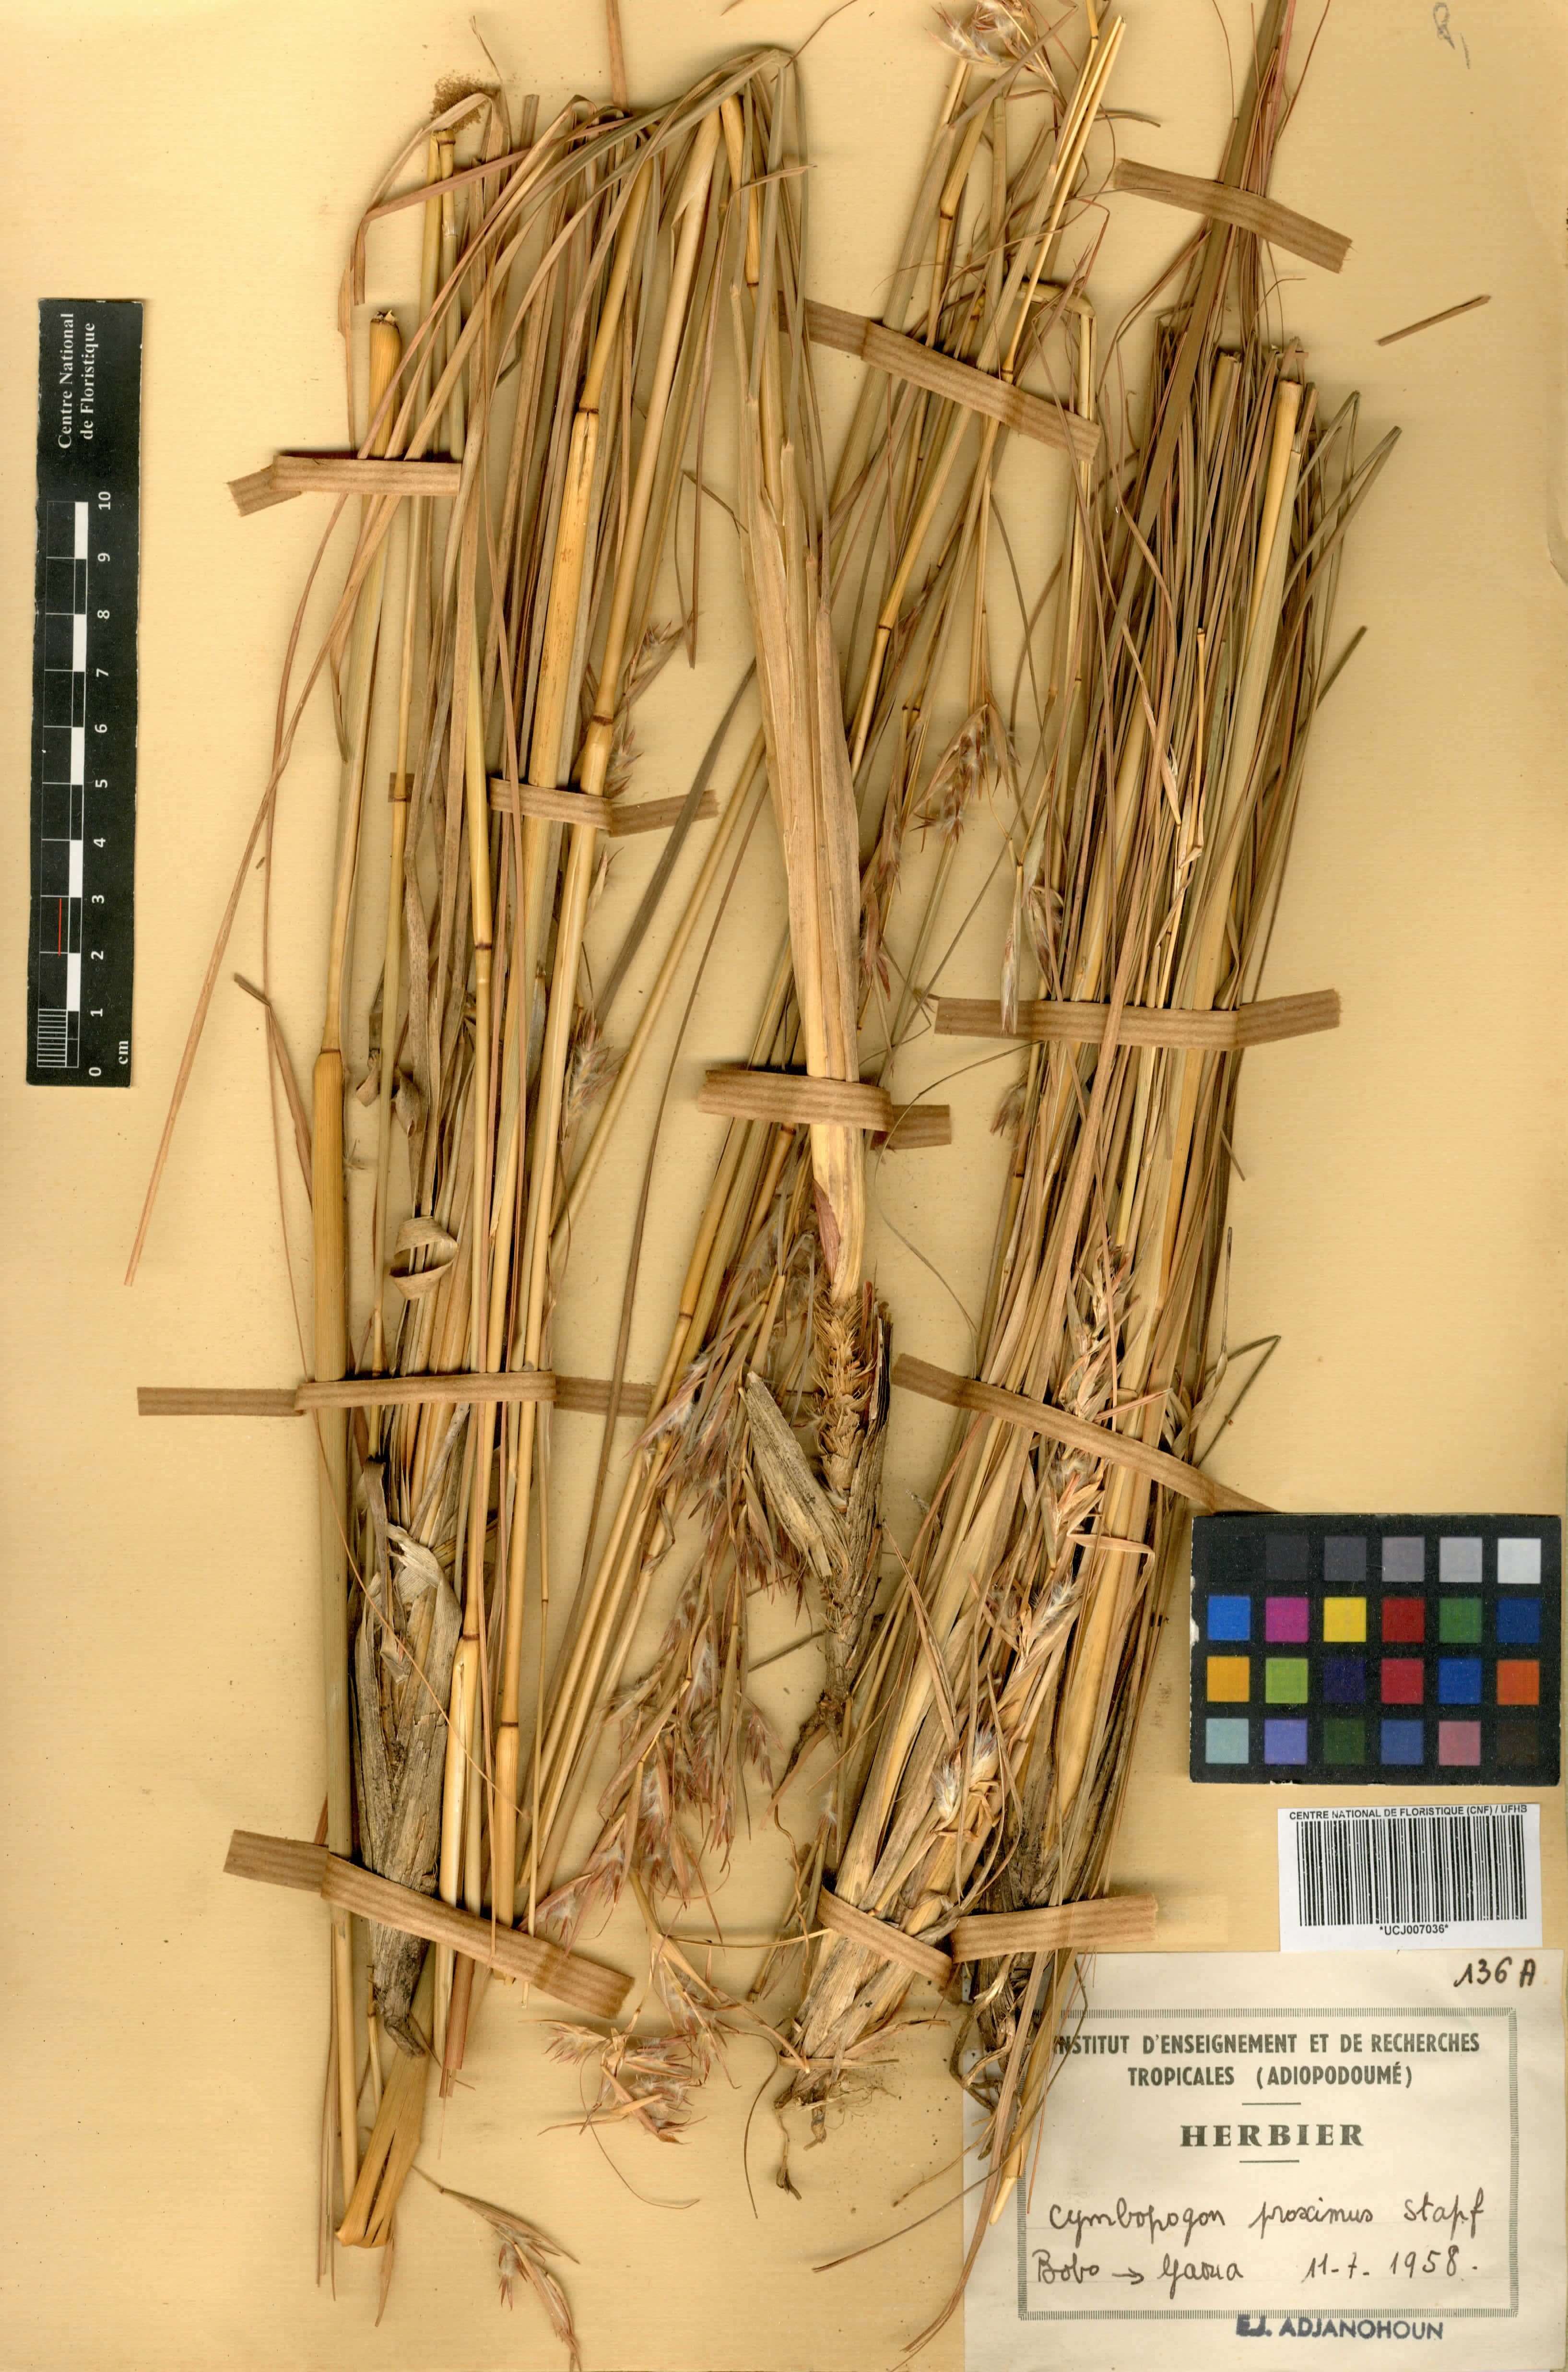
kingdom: Plantae
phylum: Tracheophyta
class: Liliopsida
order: Poales
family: Poaceae
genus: Cymbopogon
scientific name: Cymbopogon schoenanthus
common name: Geranium grass
